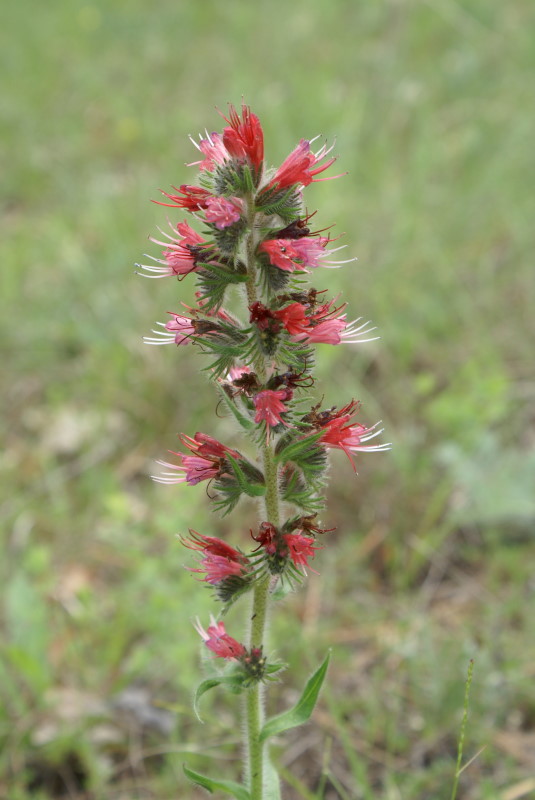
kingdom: Plantae
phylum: Tracheophyta
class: Magnoliopsida
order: Boraginales
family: Boraginaceae
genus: Pontechium
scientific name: Pontechium maculatum
